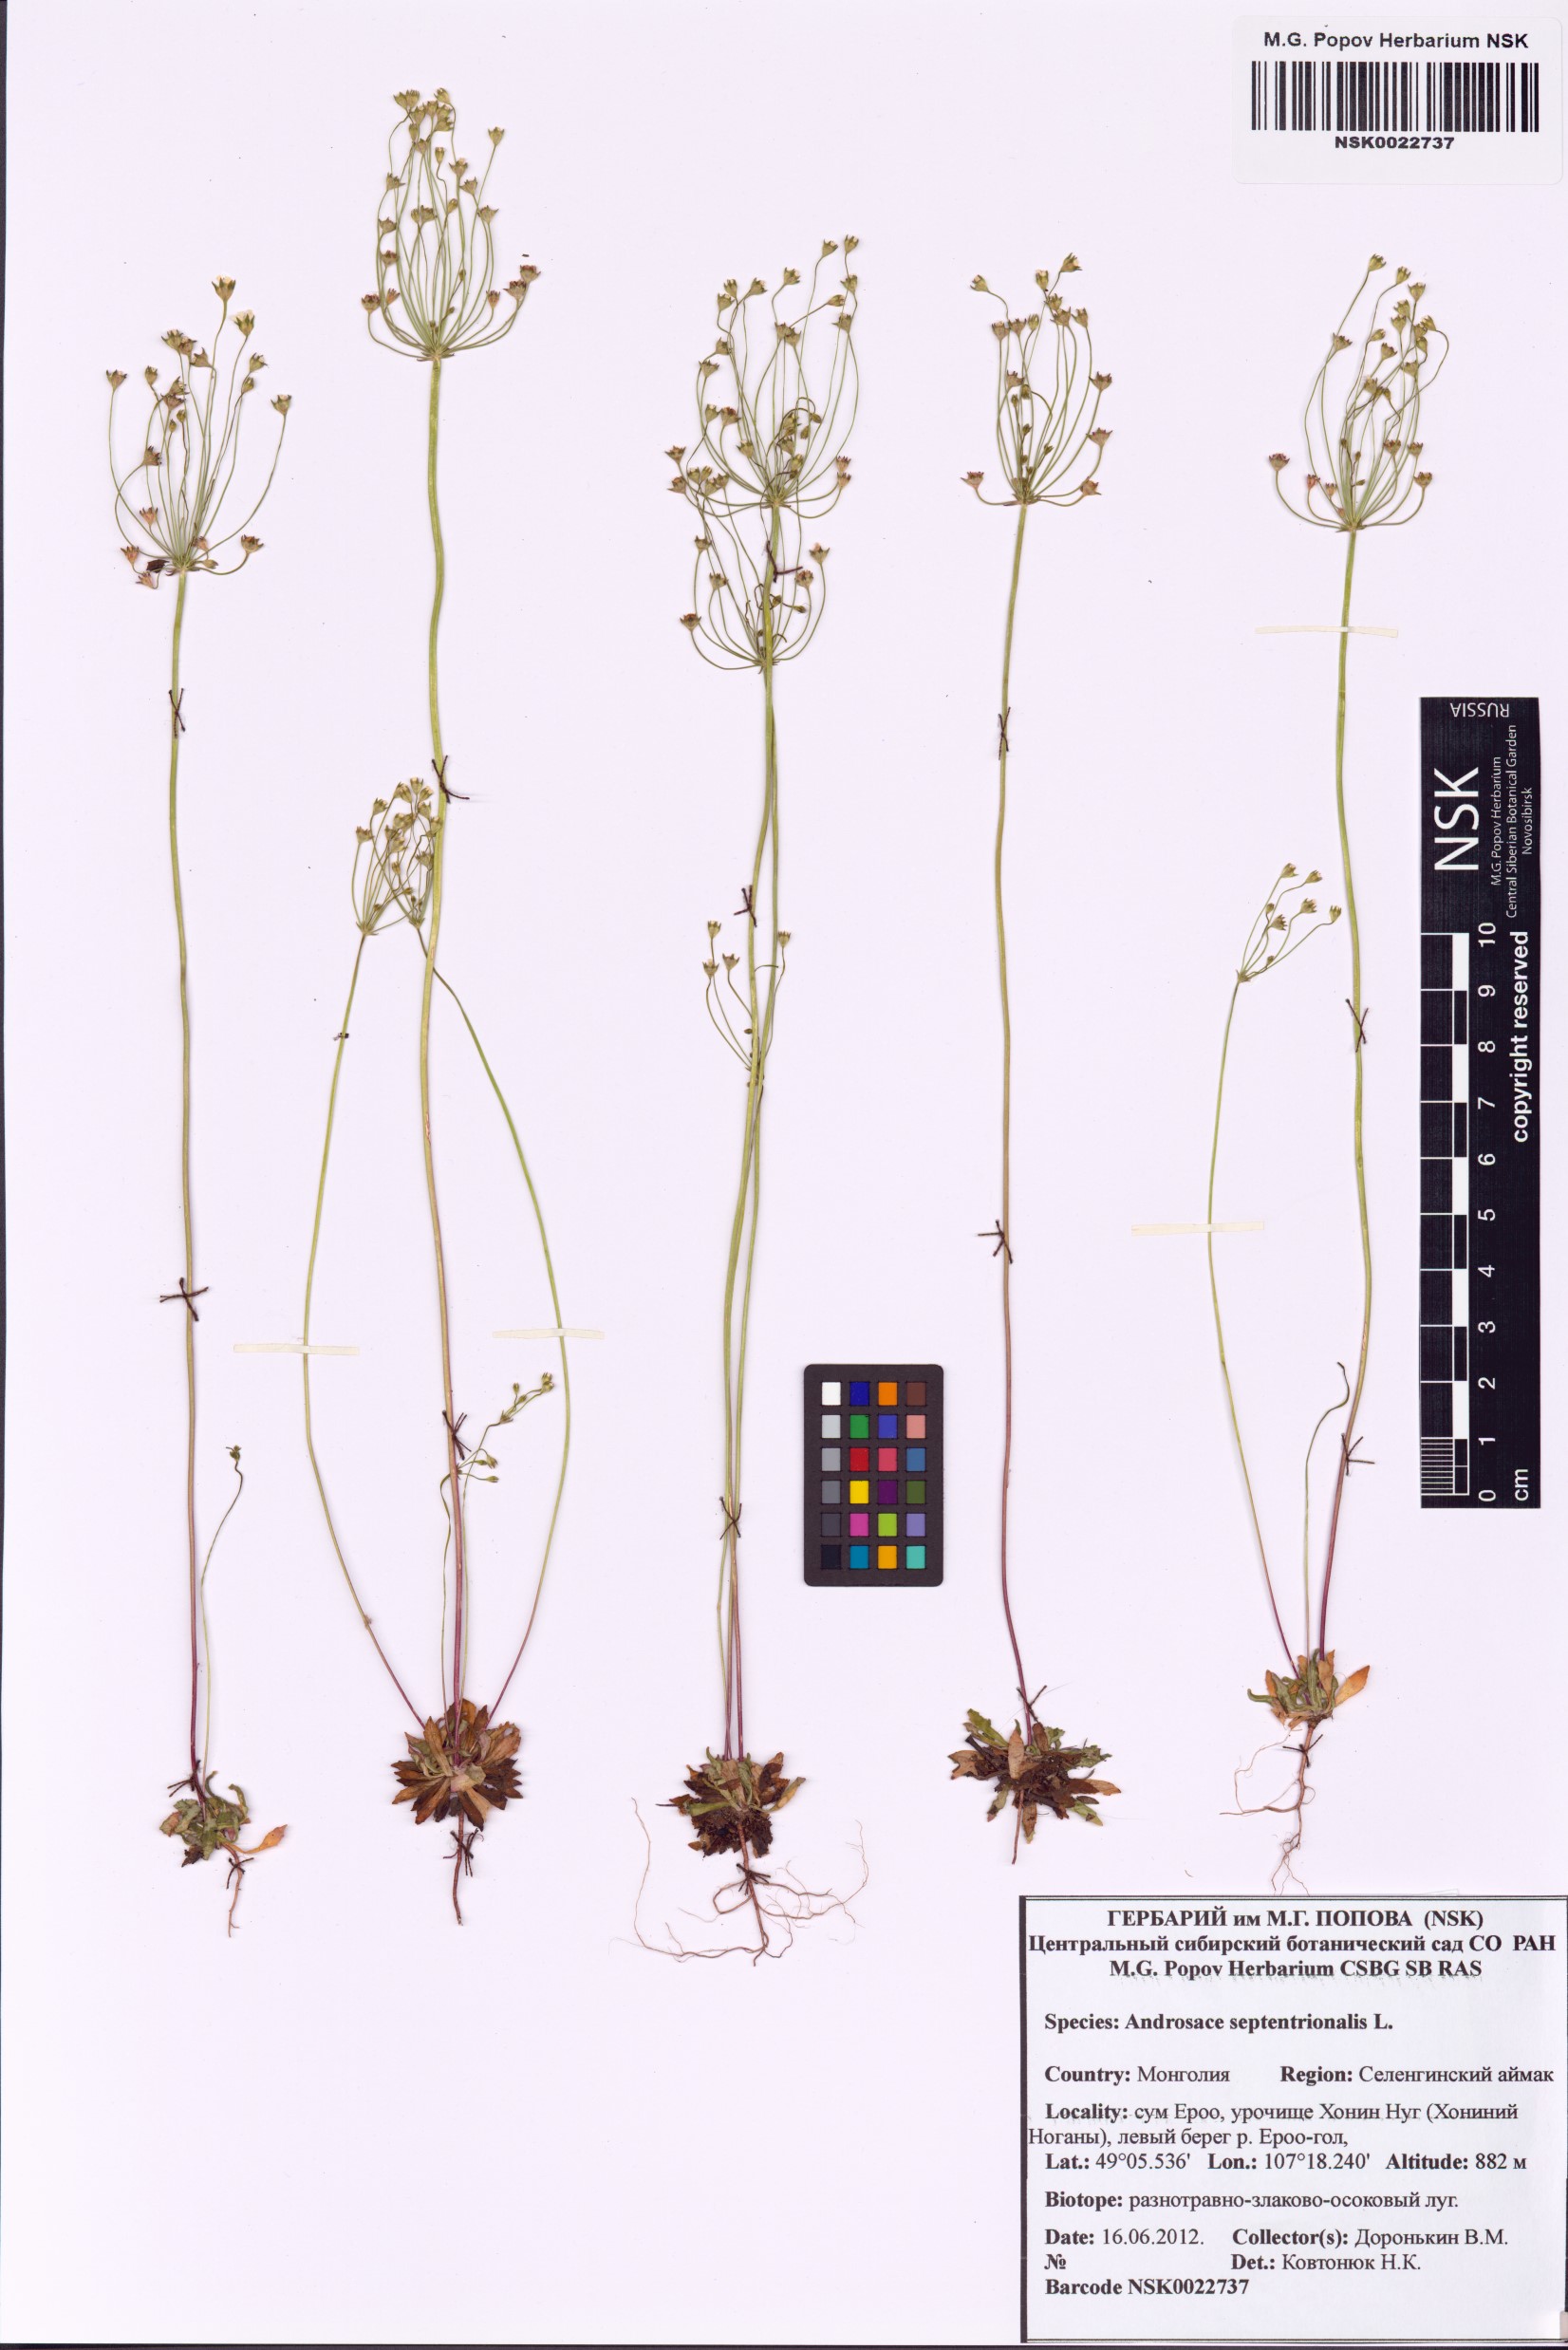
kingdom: Plantae
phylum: Tracheophyta
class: Magnoliopsida
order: Ericales
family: Primulaceae
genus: Androsace
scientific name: Androsace septentrionalis
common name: Hairy northern fairy-candelabra
